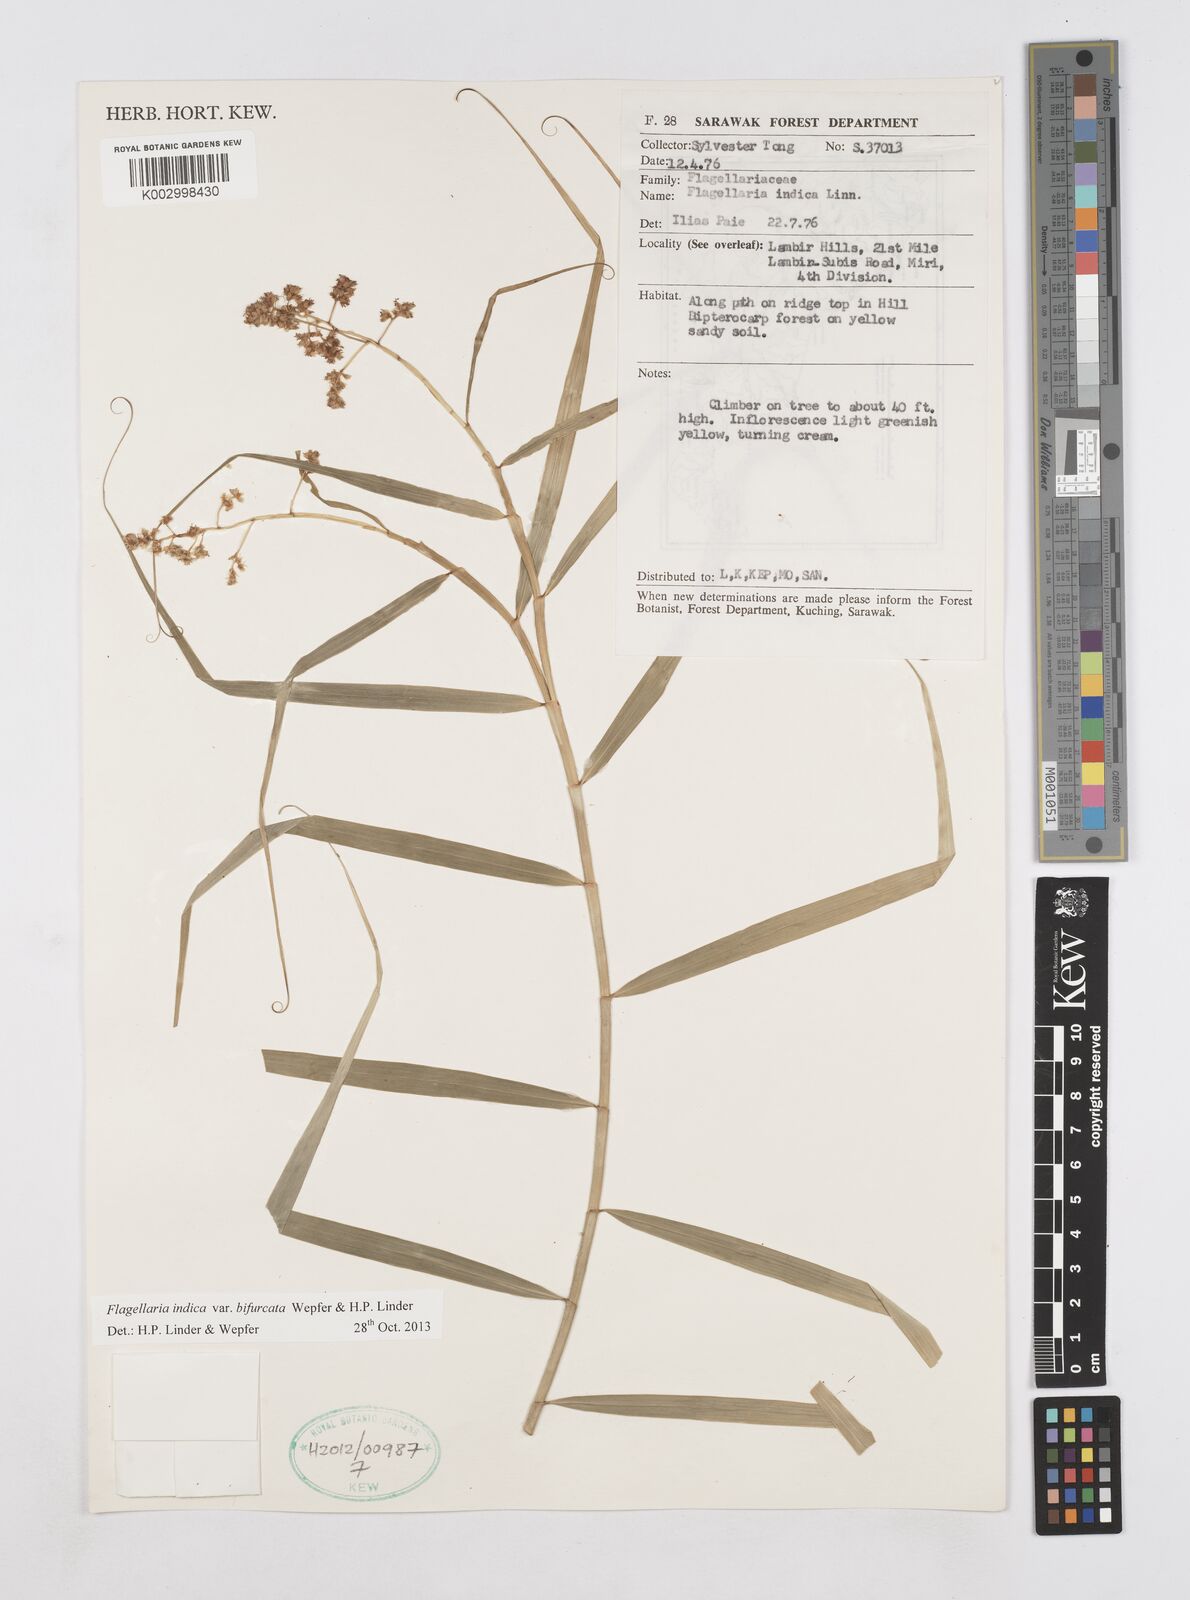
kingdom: Plantae
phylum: Tracheophyta
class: Liliopsida
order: Poales
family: Flagellariaceae
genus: Flagellaria
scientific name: Flagellaria indica
